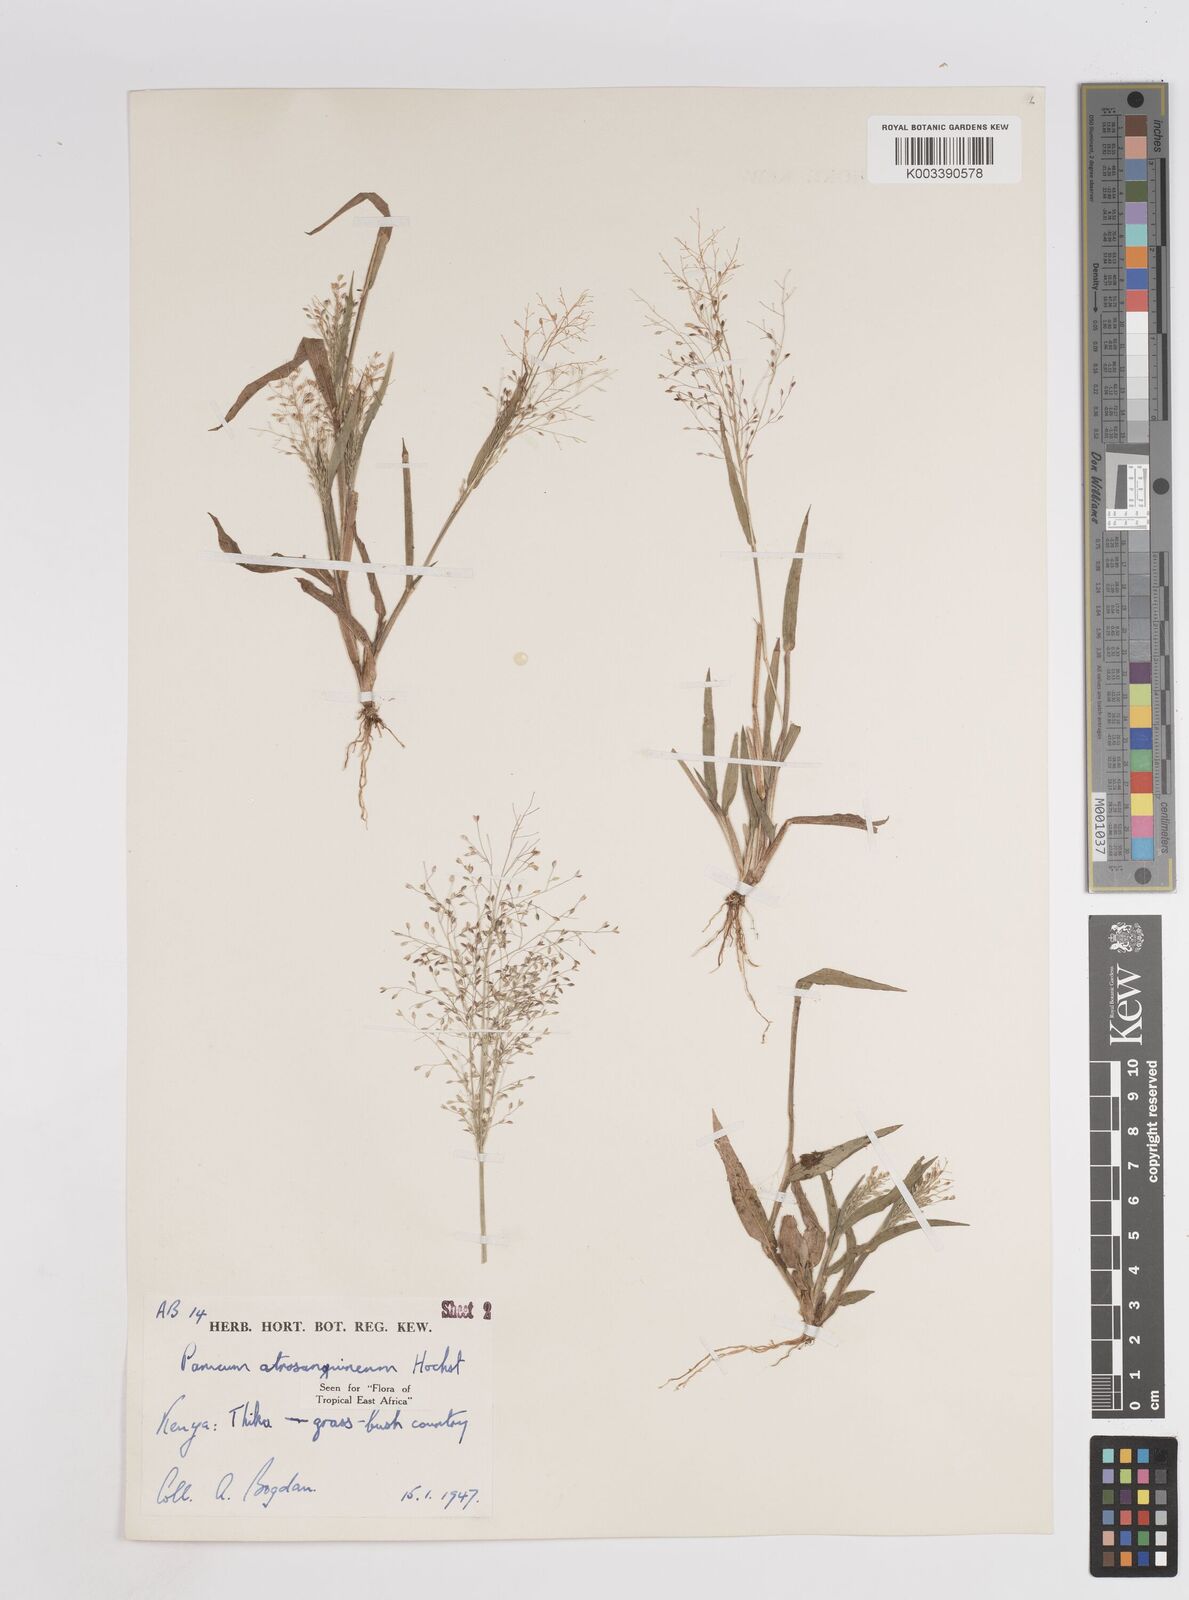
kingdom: Plantae
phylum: Tracheophyta
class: Liliopsida
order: Poales
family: Poaceae
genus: Panicum
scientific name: Panicum atrosanguineum
